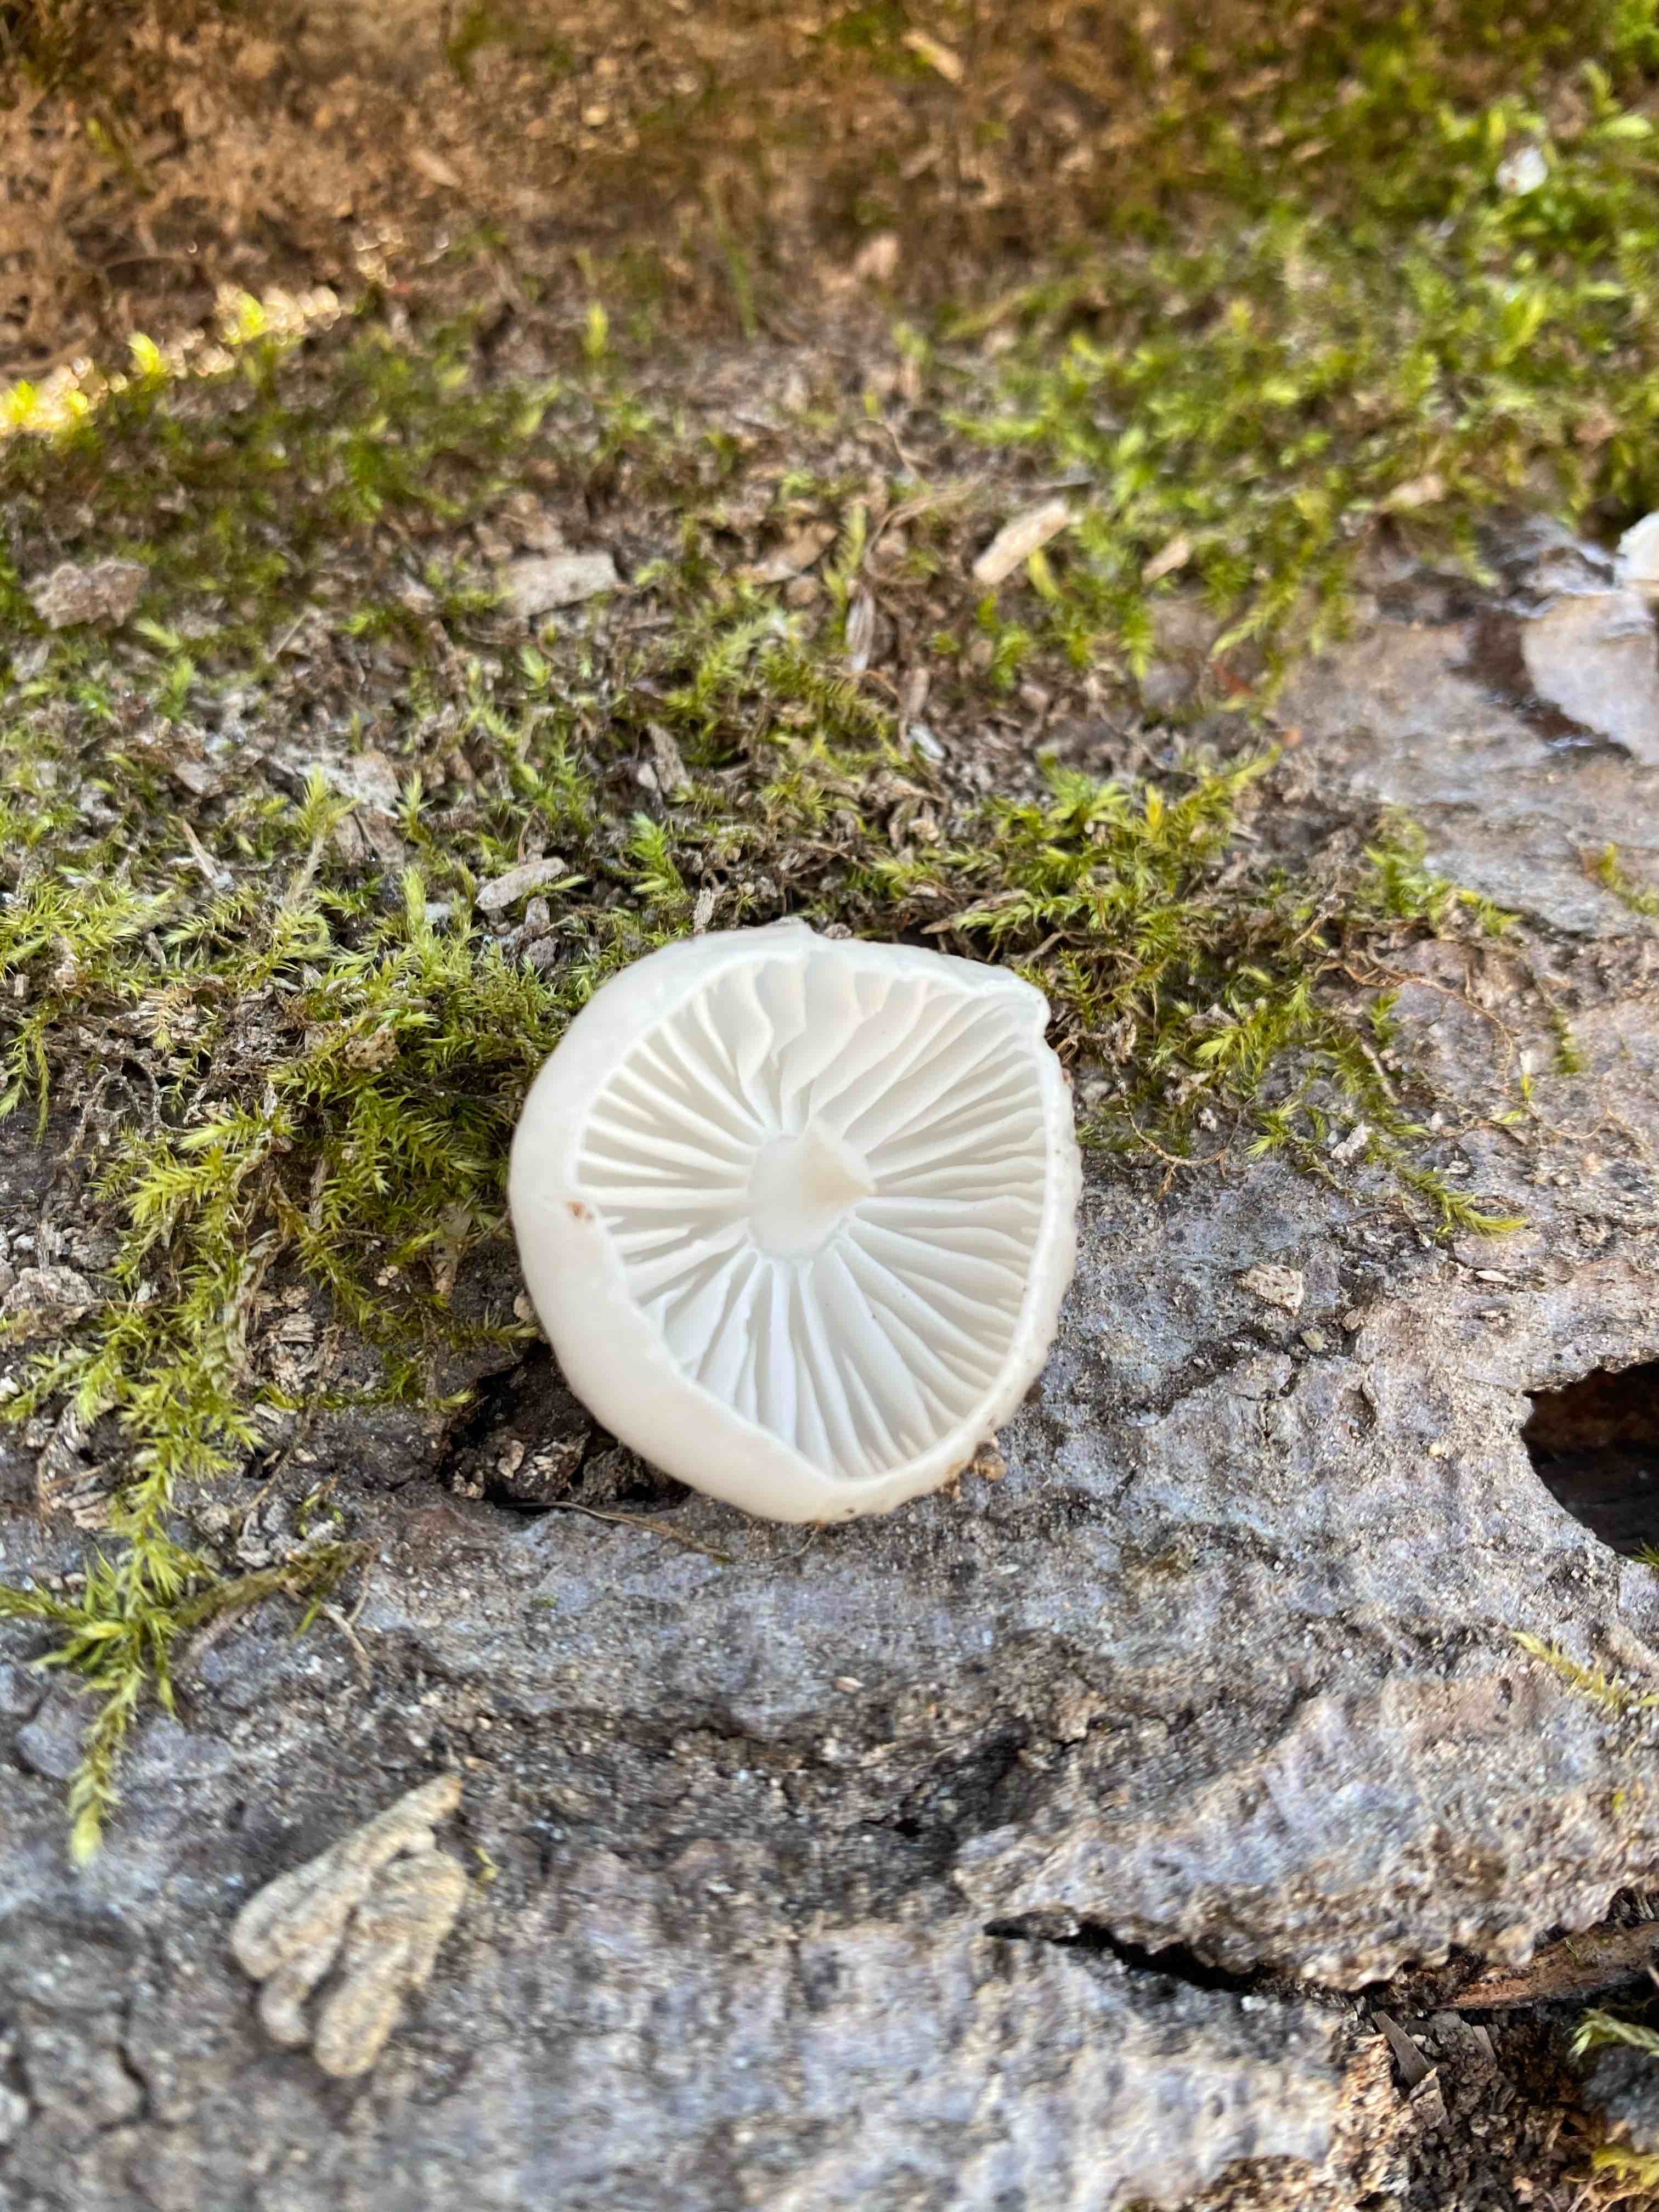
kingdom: Fungi
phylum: Basidiomycota
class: Agaricomycetes
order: Agaricales
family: Physalacriaceae
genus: Mucidula
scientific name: Mucidula mucida
